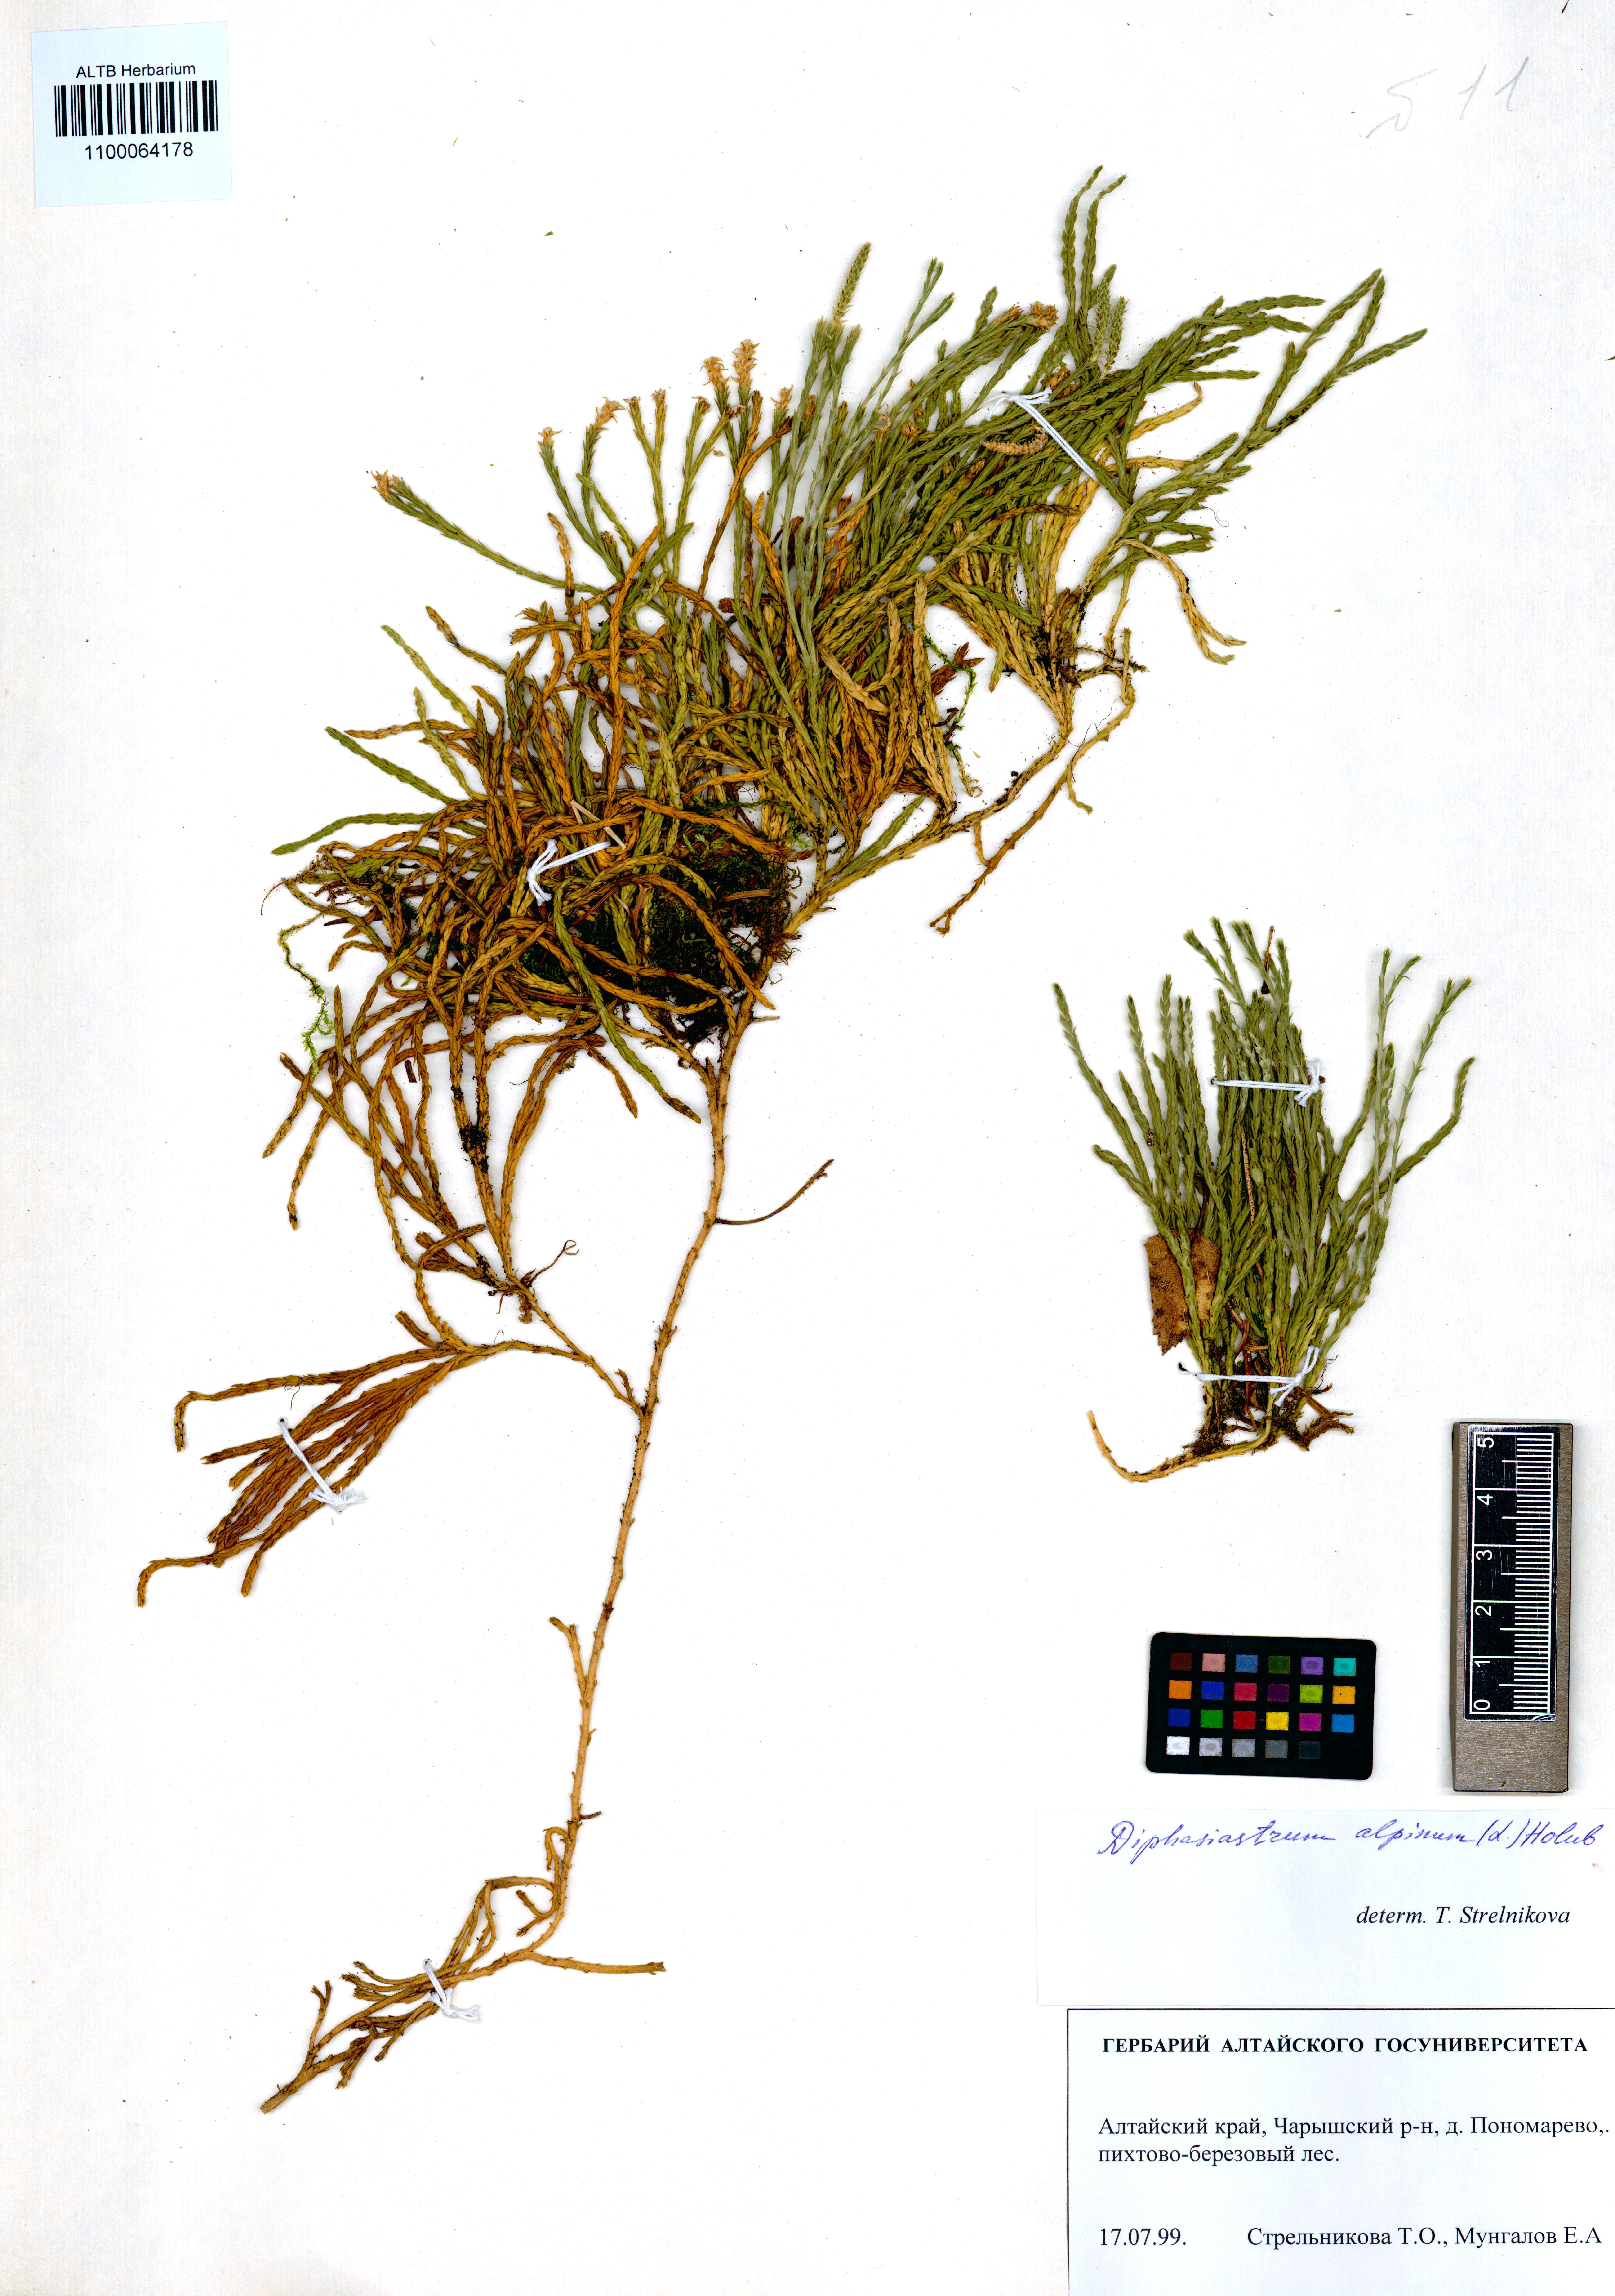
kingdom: Plantae
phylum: Tracheophyta
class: Lycopodiopsida
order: Lycopodiales
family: Lycopodiaceae
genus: Diphasiastrum
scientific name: Diphasiastrum alpinum
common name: Alpine clubmoss
